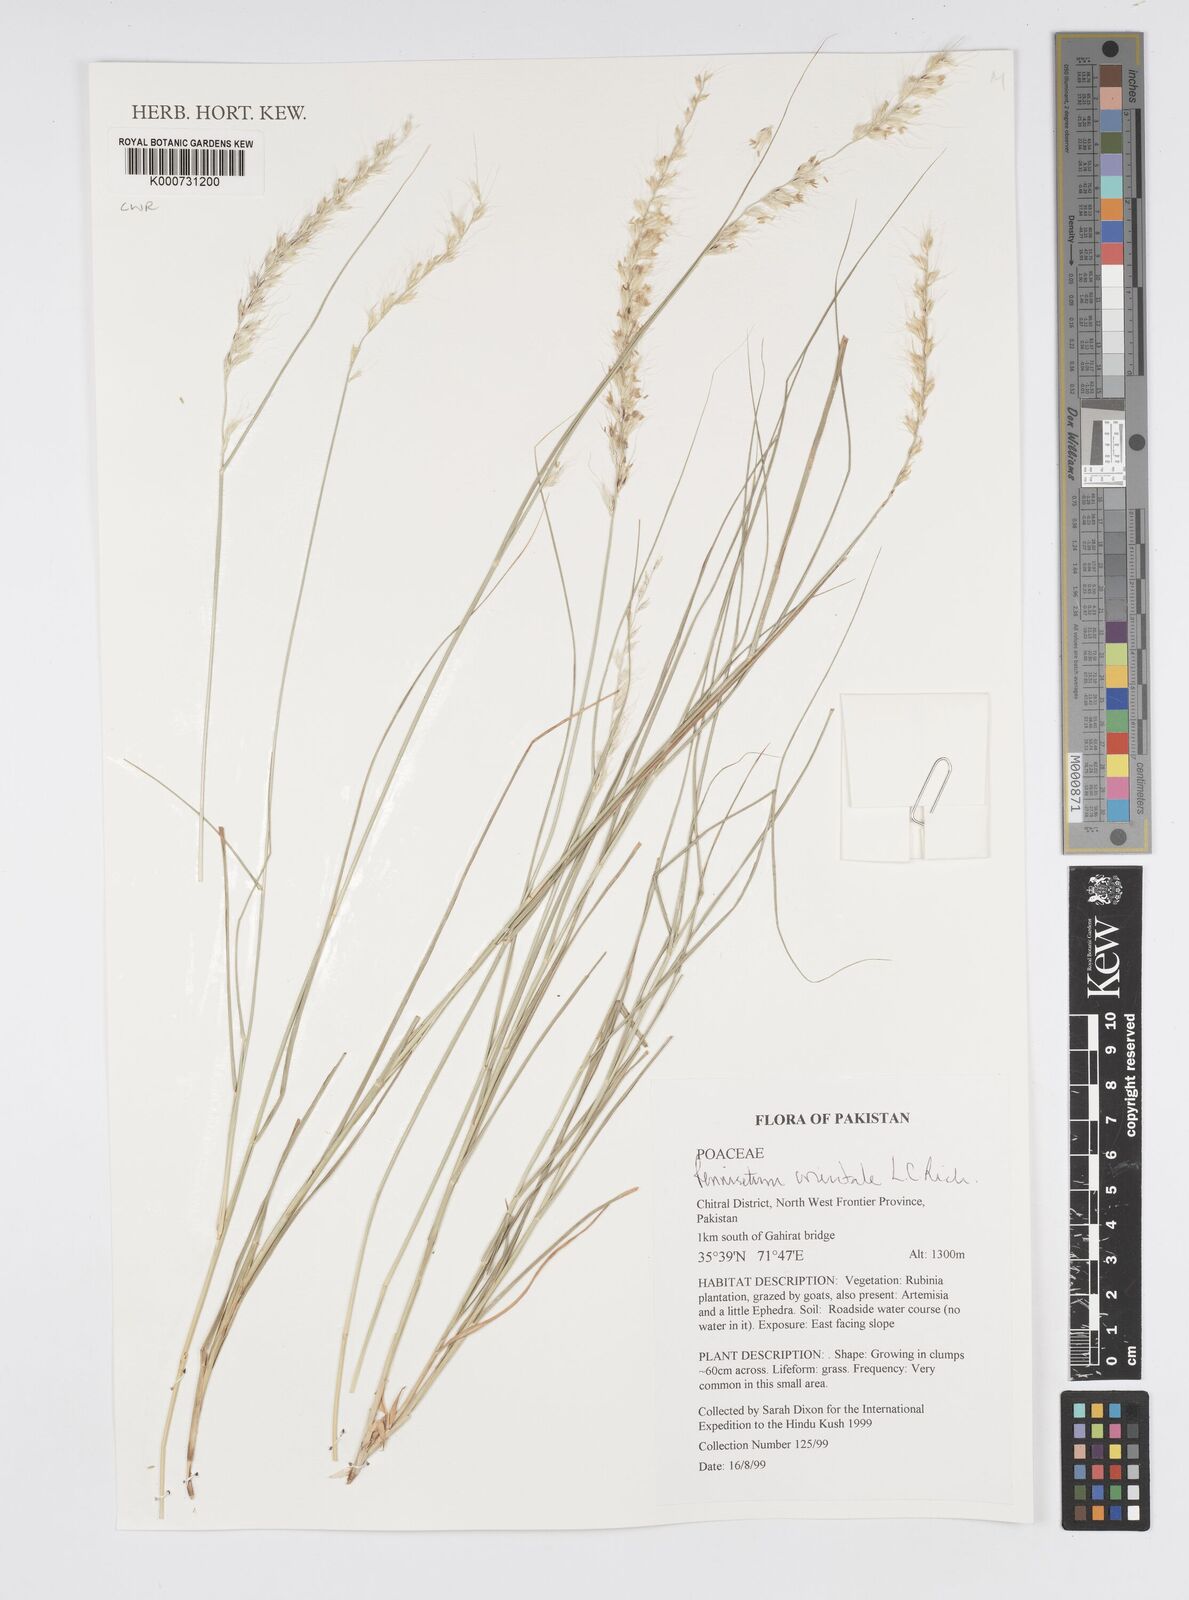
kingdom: Plantae
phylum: Tracheophyta
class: Liliopsida
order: Poales
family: Poaceae
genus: Cenchrus
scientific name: Cenchrus orientalis
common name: Oriental fountain grass
